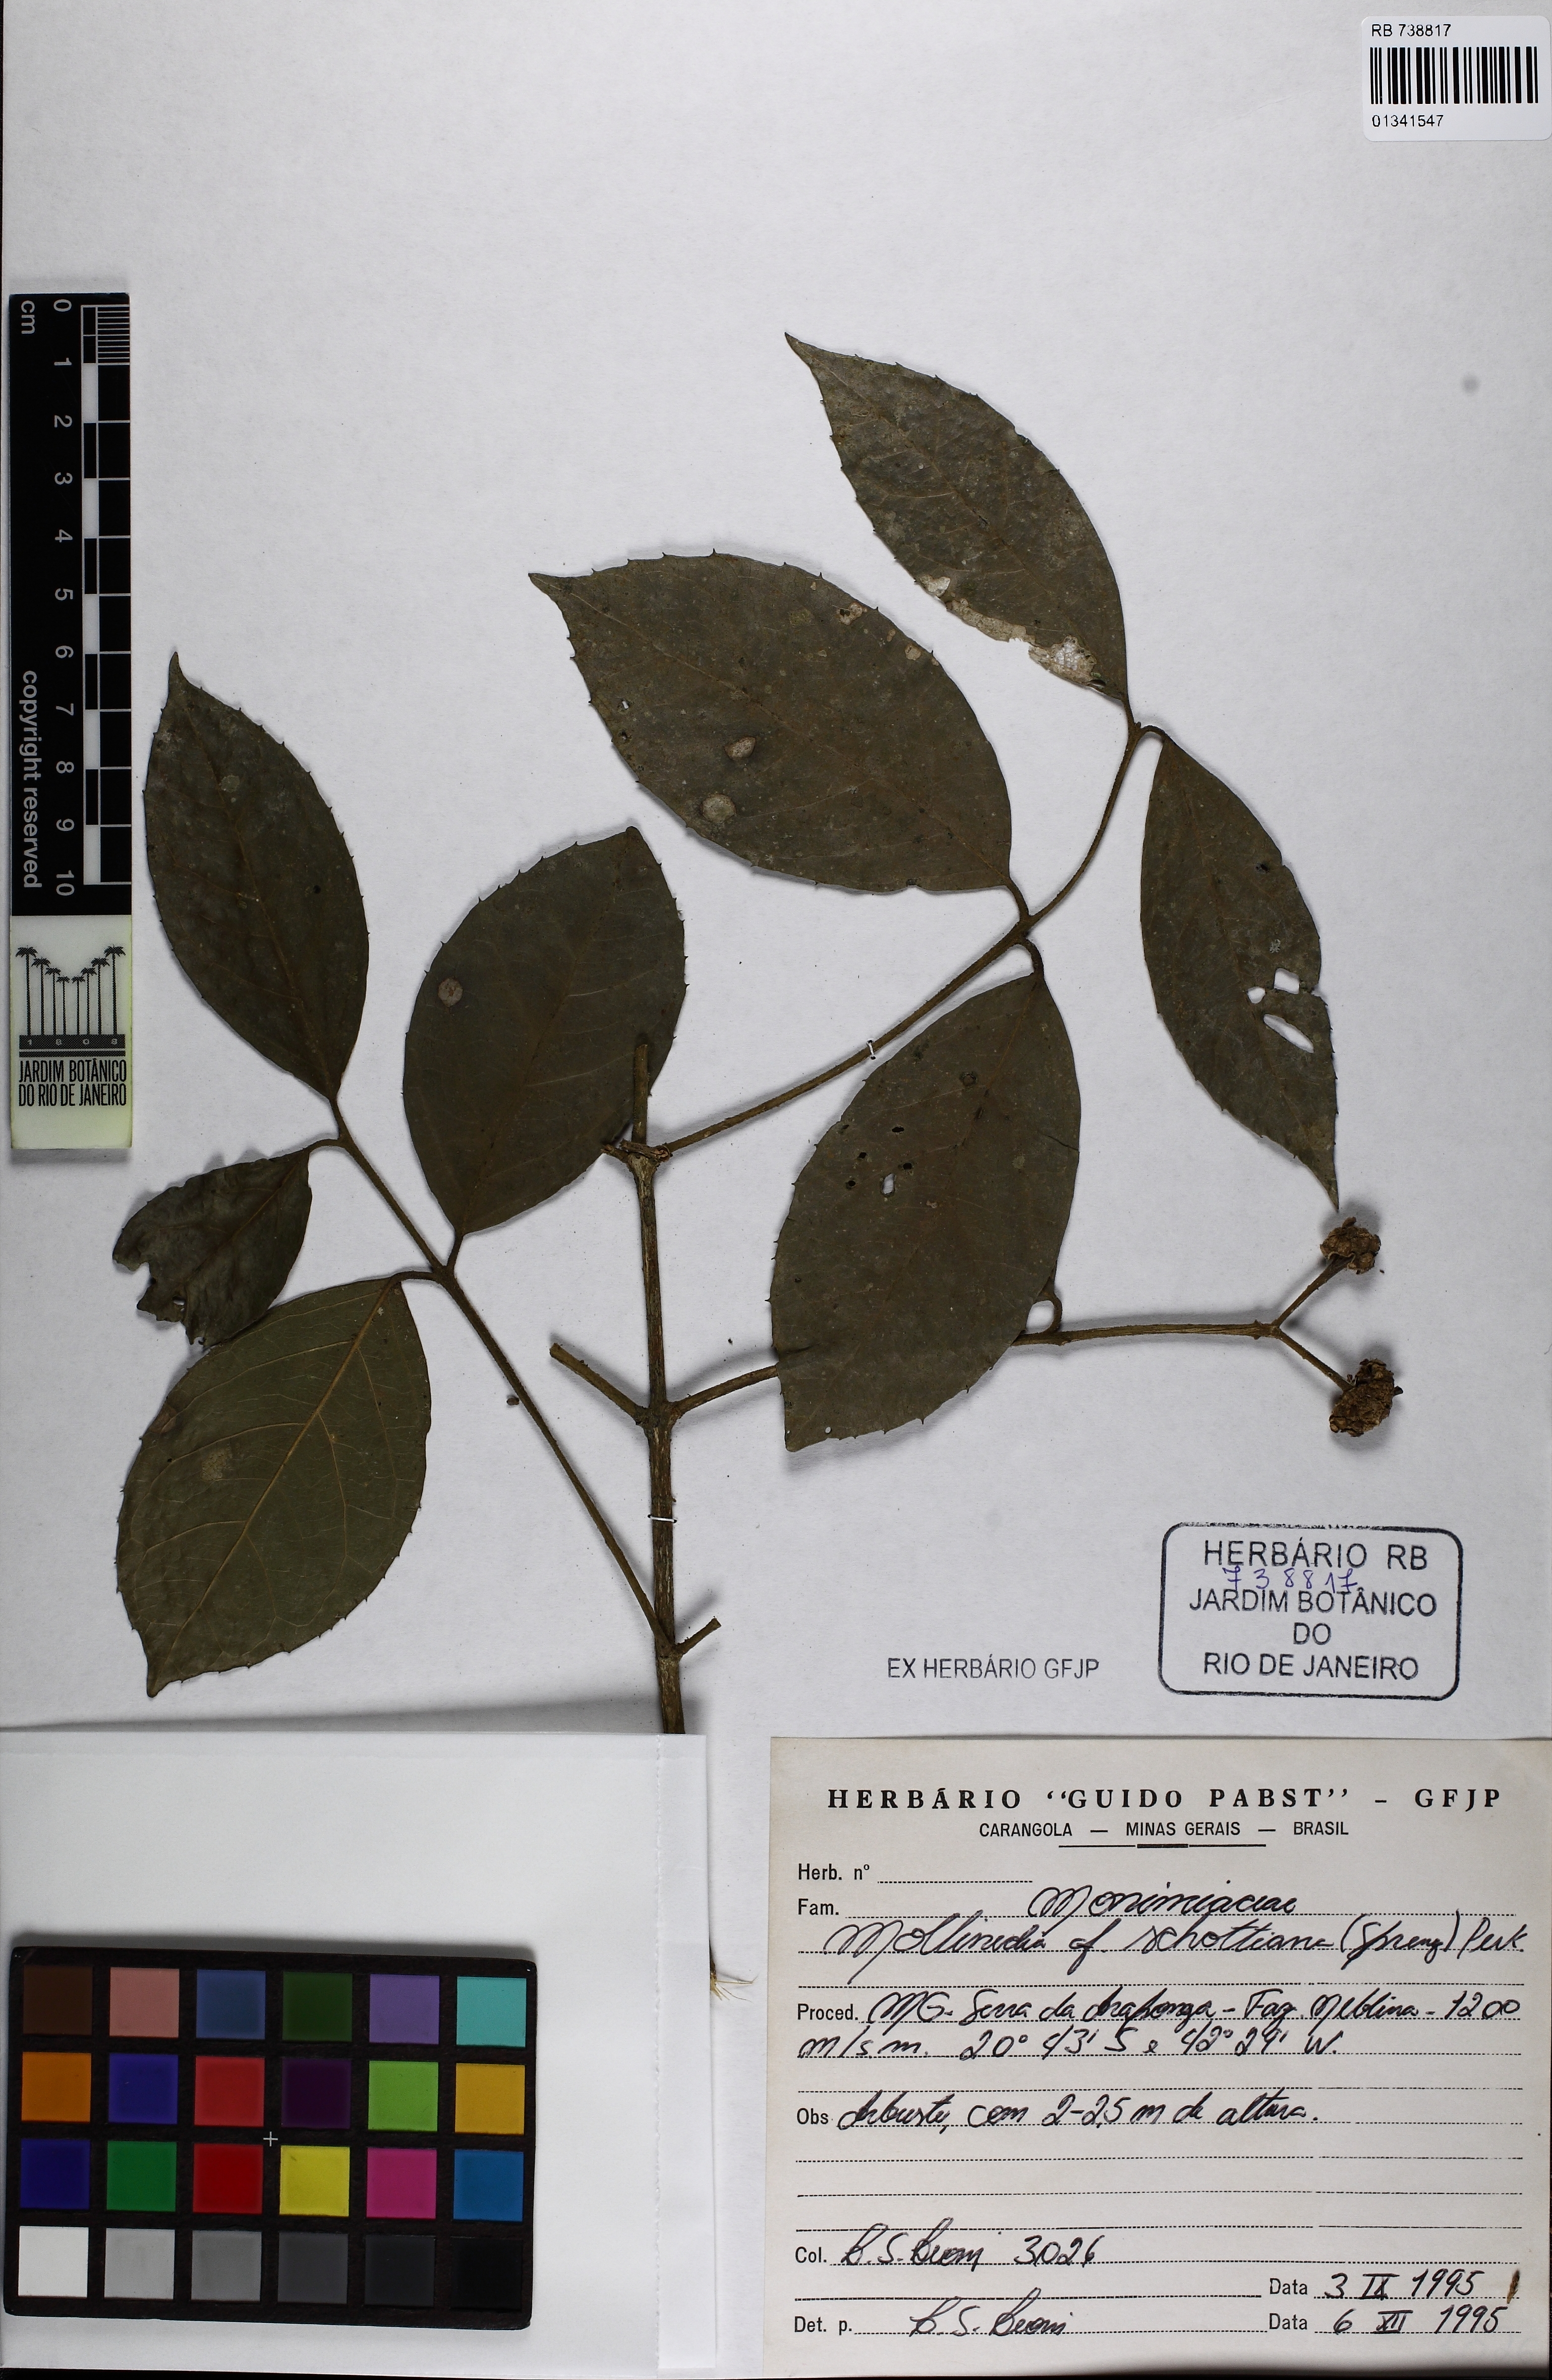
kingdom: Plantae
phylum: Tracheophyta
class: Magnoliopsida
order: Laurales
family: Monimiaceae
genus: Mollinedia
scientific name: Mollinedia umbellata
